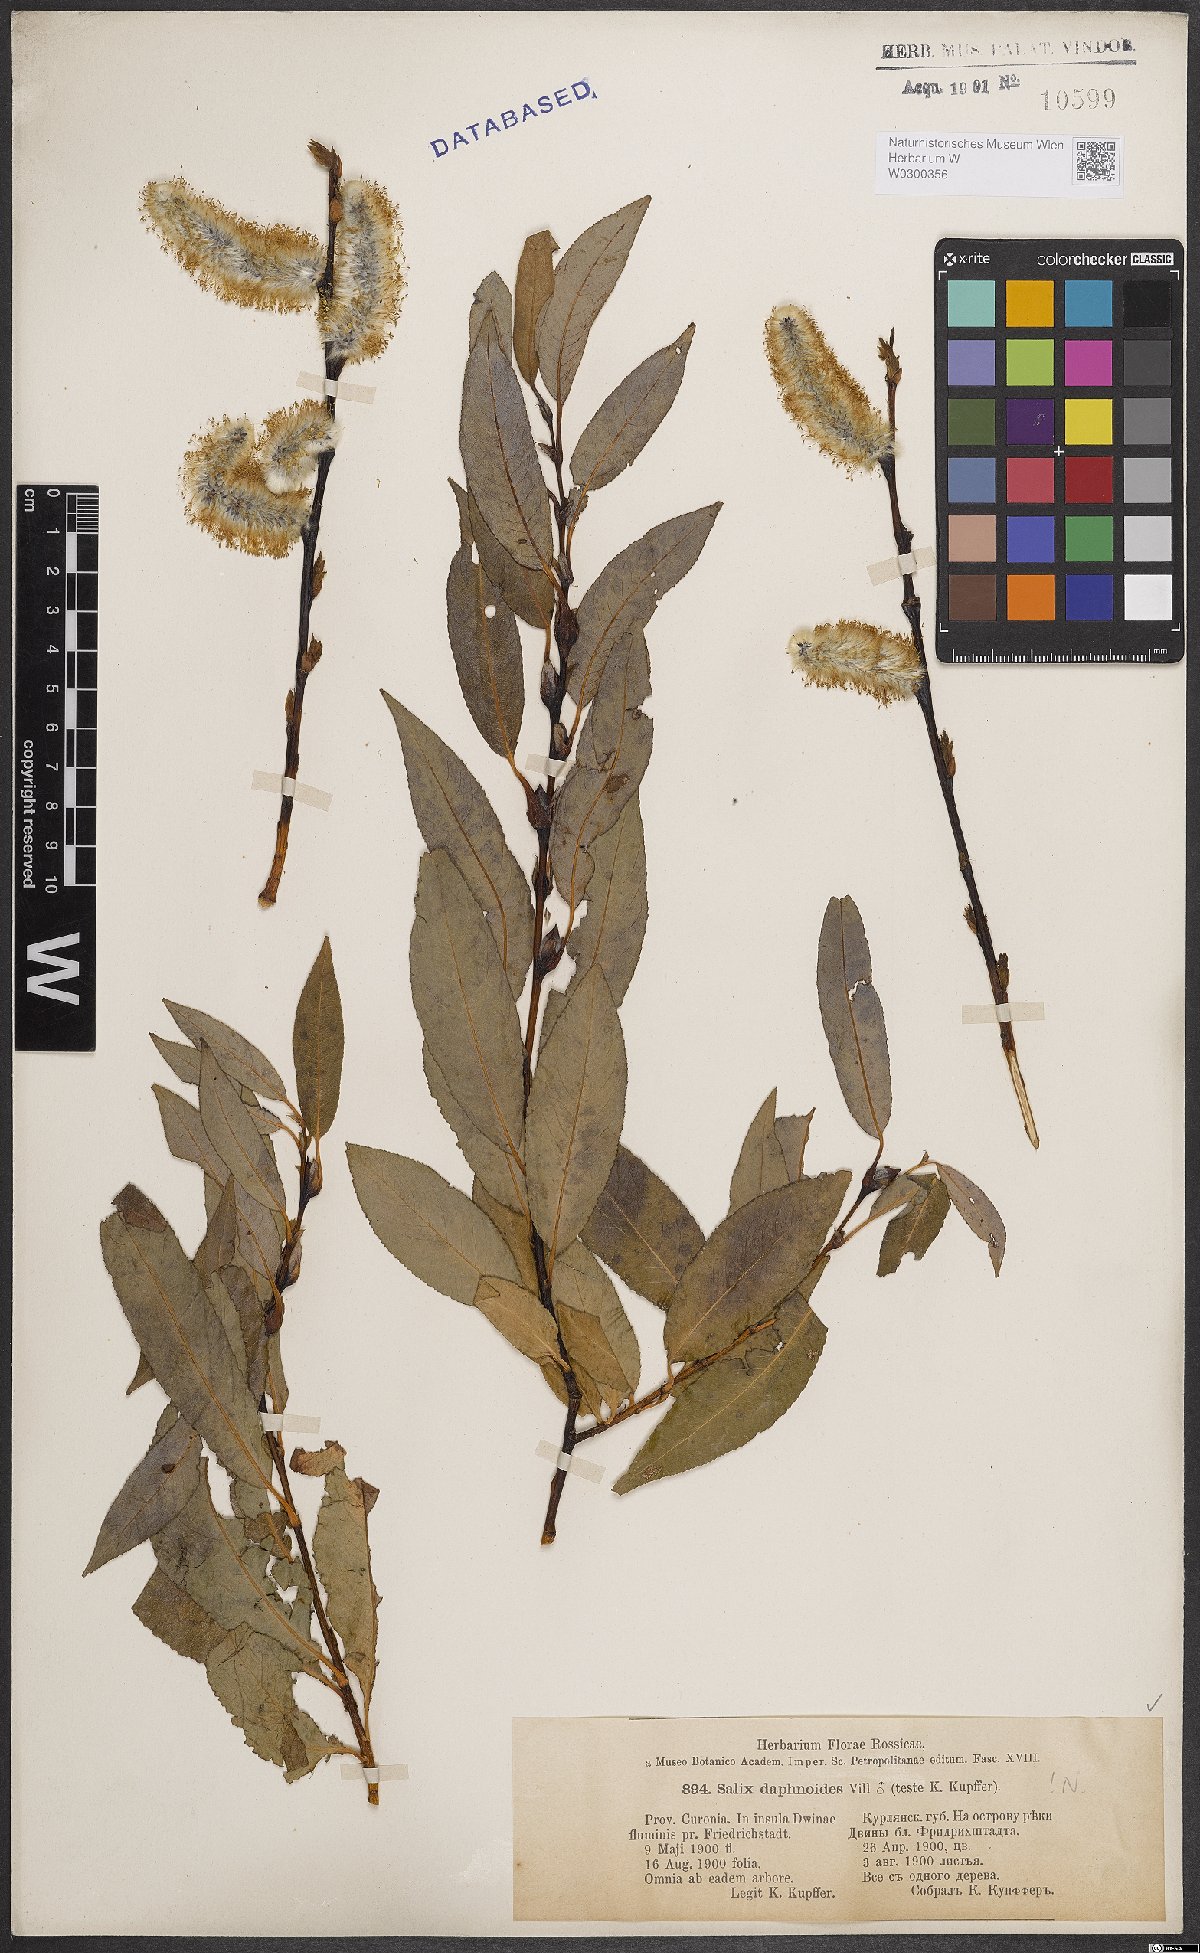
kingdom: Plantae
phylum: Tracheophyta
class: Magnoliopsida
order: Malpighiales
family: Salicaceae
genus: Salix
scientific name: Salix daphnoides
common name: European violet-willow
